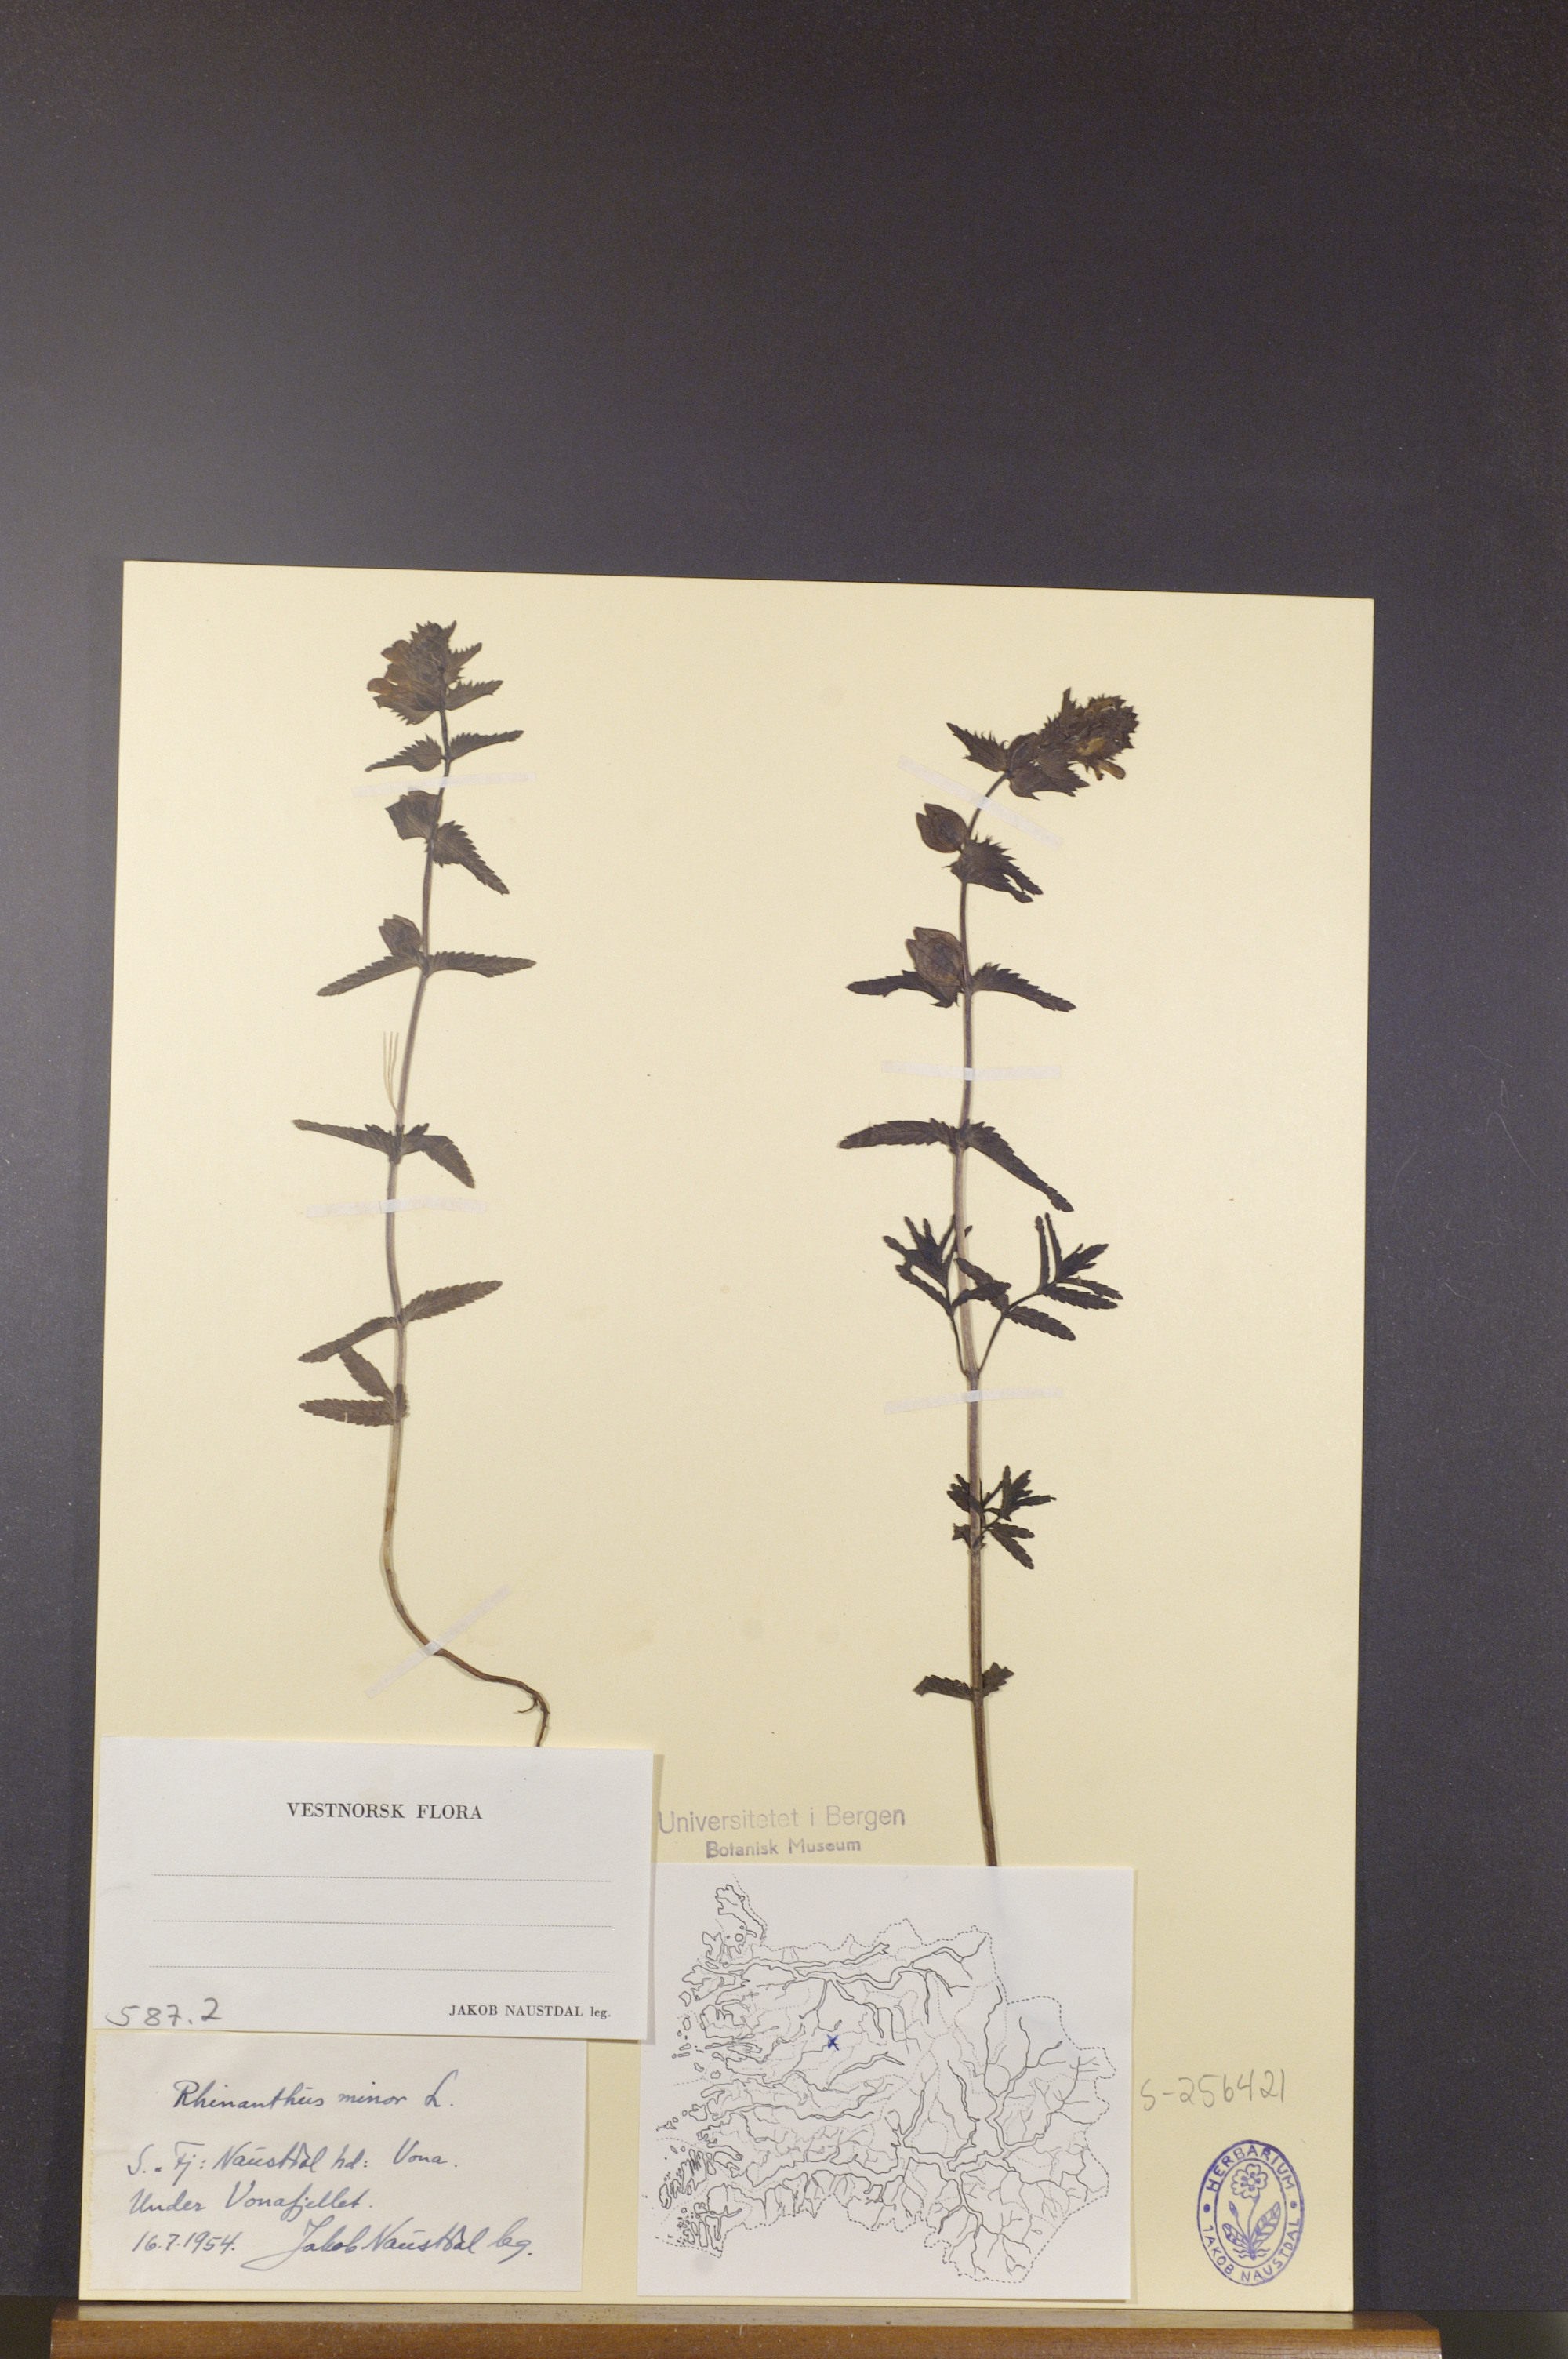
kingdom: Plantae
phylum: Tracheophyta
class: Magnoliopsida
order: Lamiales
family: Orobanchaceae
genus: Rhinanthus
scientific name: Rhinanthus minor
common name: Yellow-rattle
